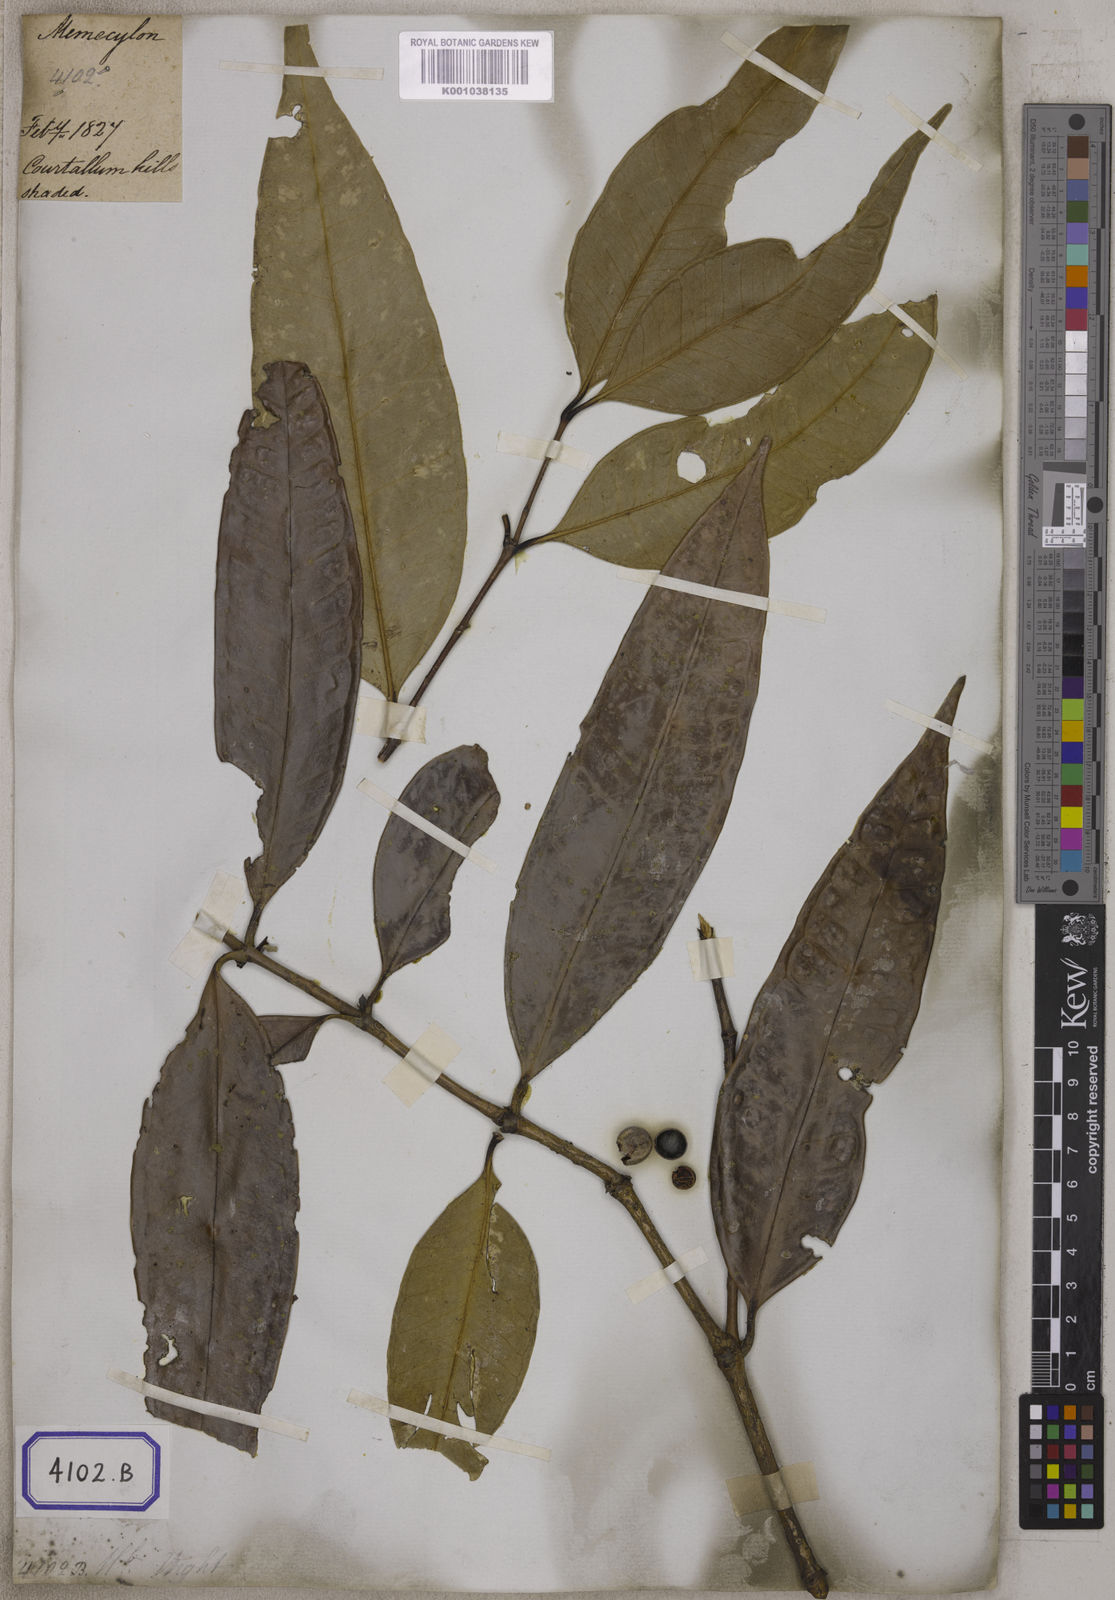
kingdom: Plantae
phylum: Tracheophyta
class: Magnoliopsida
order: Myrtales
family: Melastomataceae
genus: Memecylon
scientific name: Memecylon
